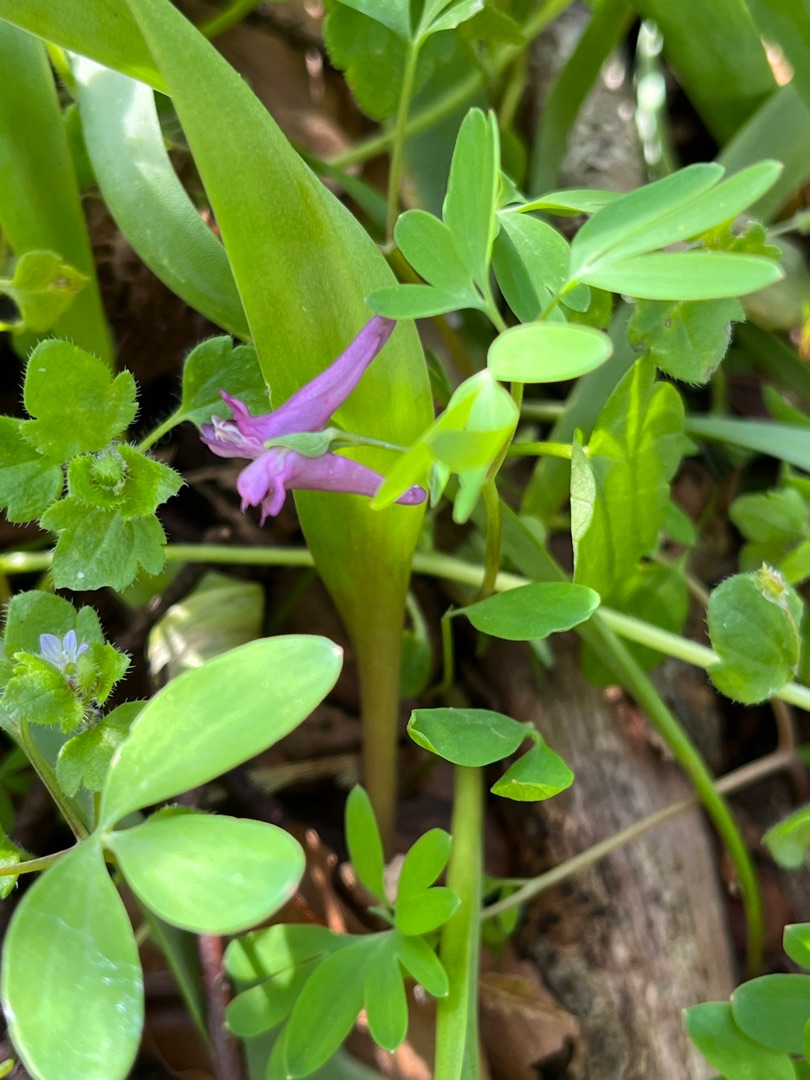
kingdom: Plantae
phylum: Tracheophyta
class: Magnoliopsida
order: Ranunculales
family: Papaveraceae
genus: Corydalis
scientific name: Corydalis intermedia
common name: Liden lærkespore
